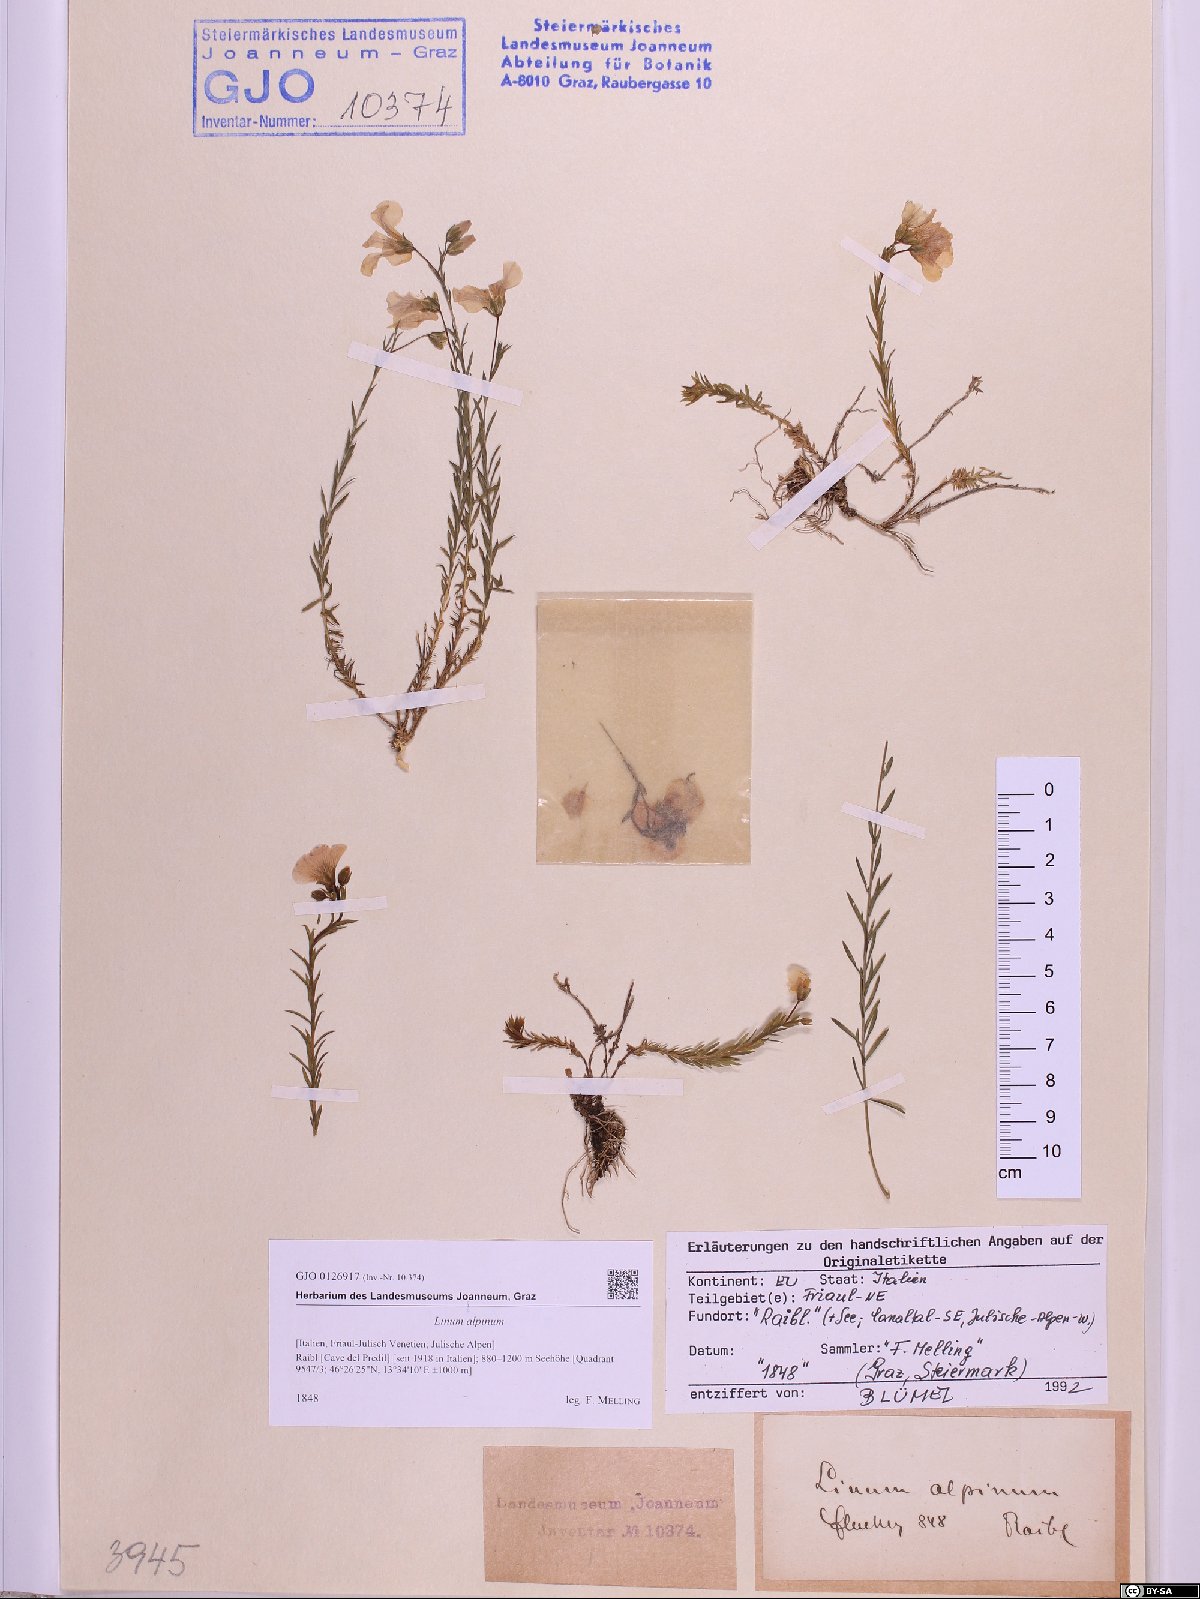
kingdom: Plantae
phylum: Tracheophyta
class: Magnoliopsida
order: Malpighiales
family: Linaceae
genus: Linum
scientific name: Linum alpinum
